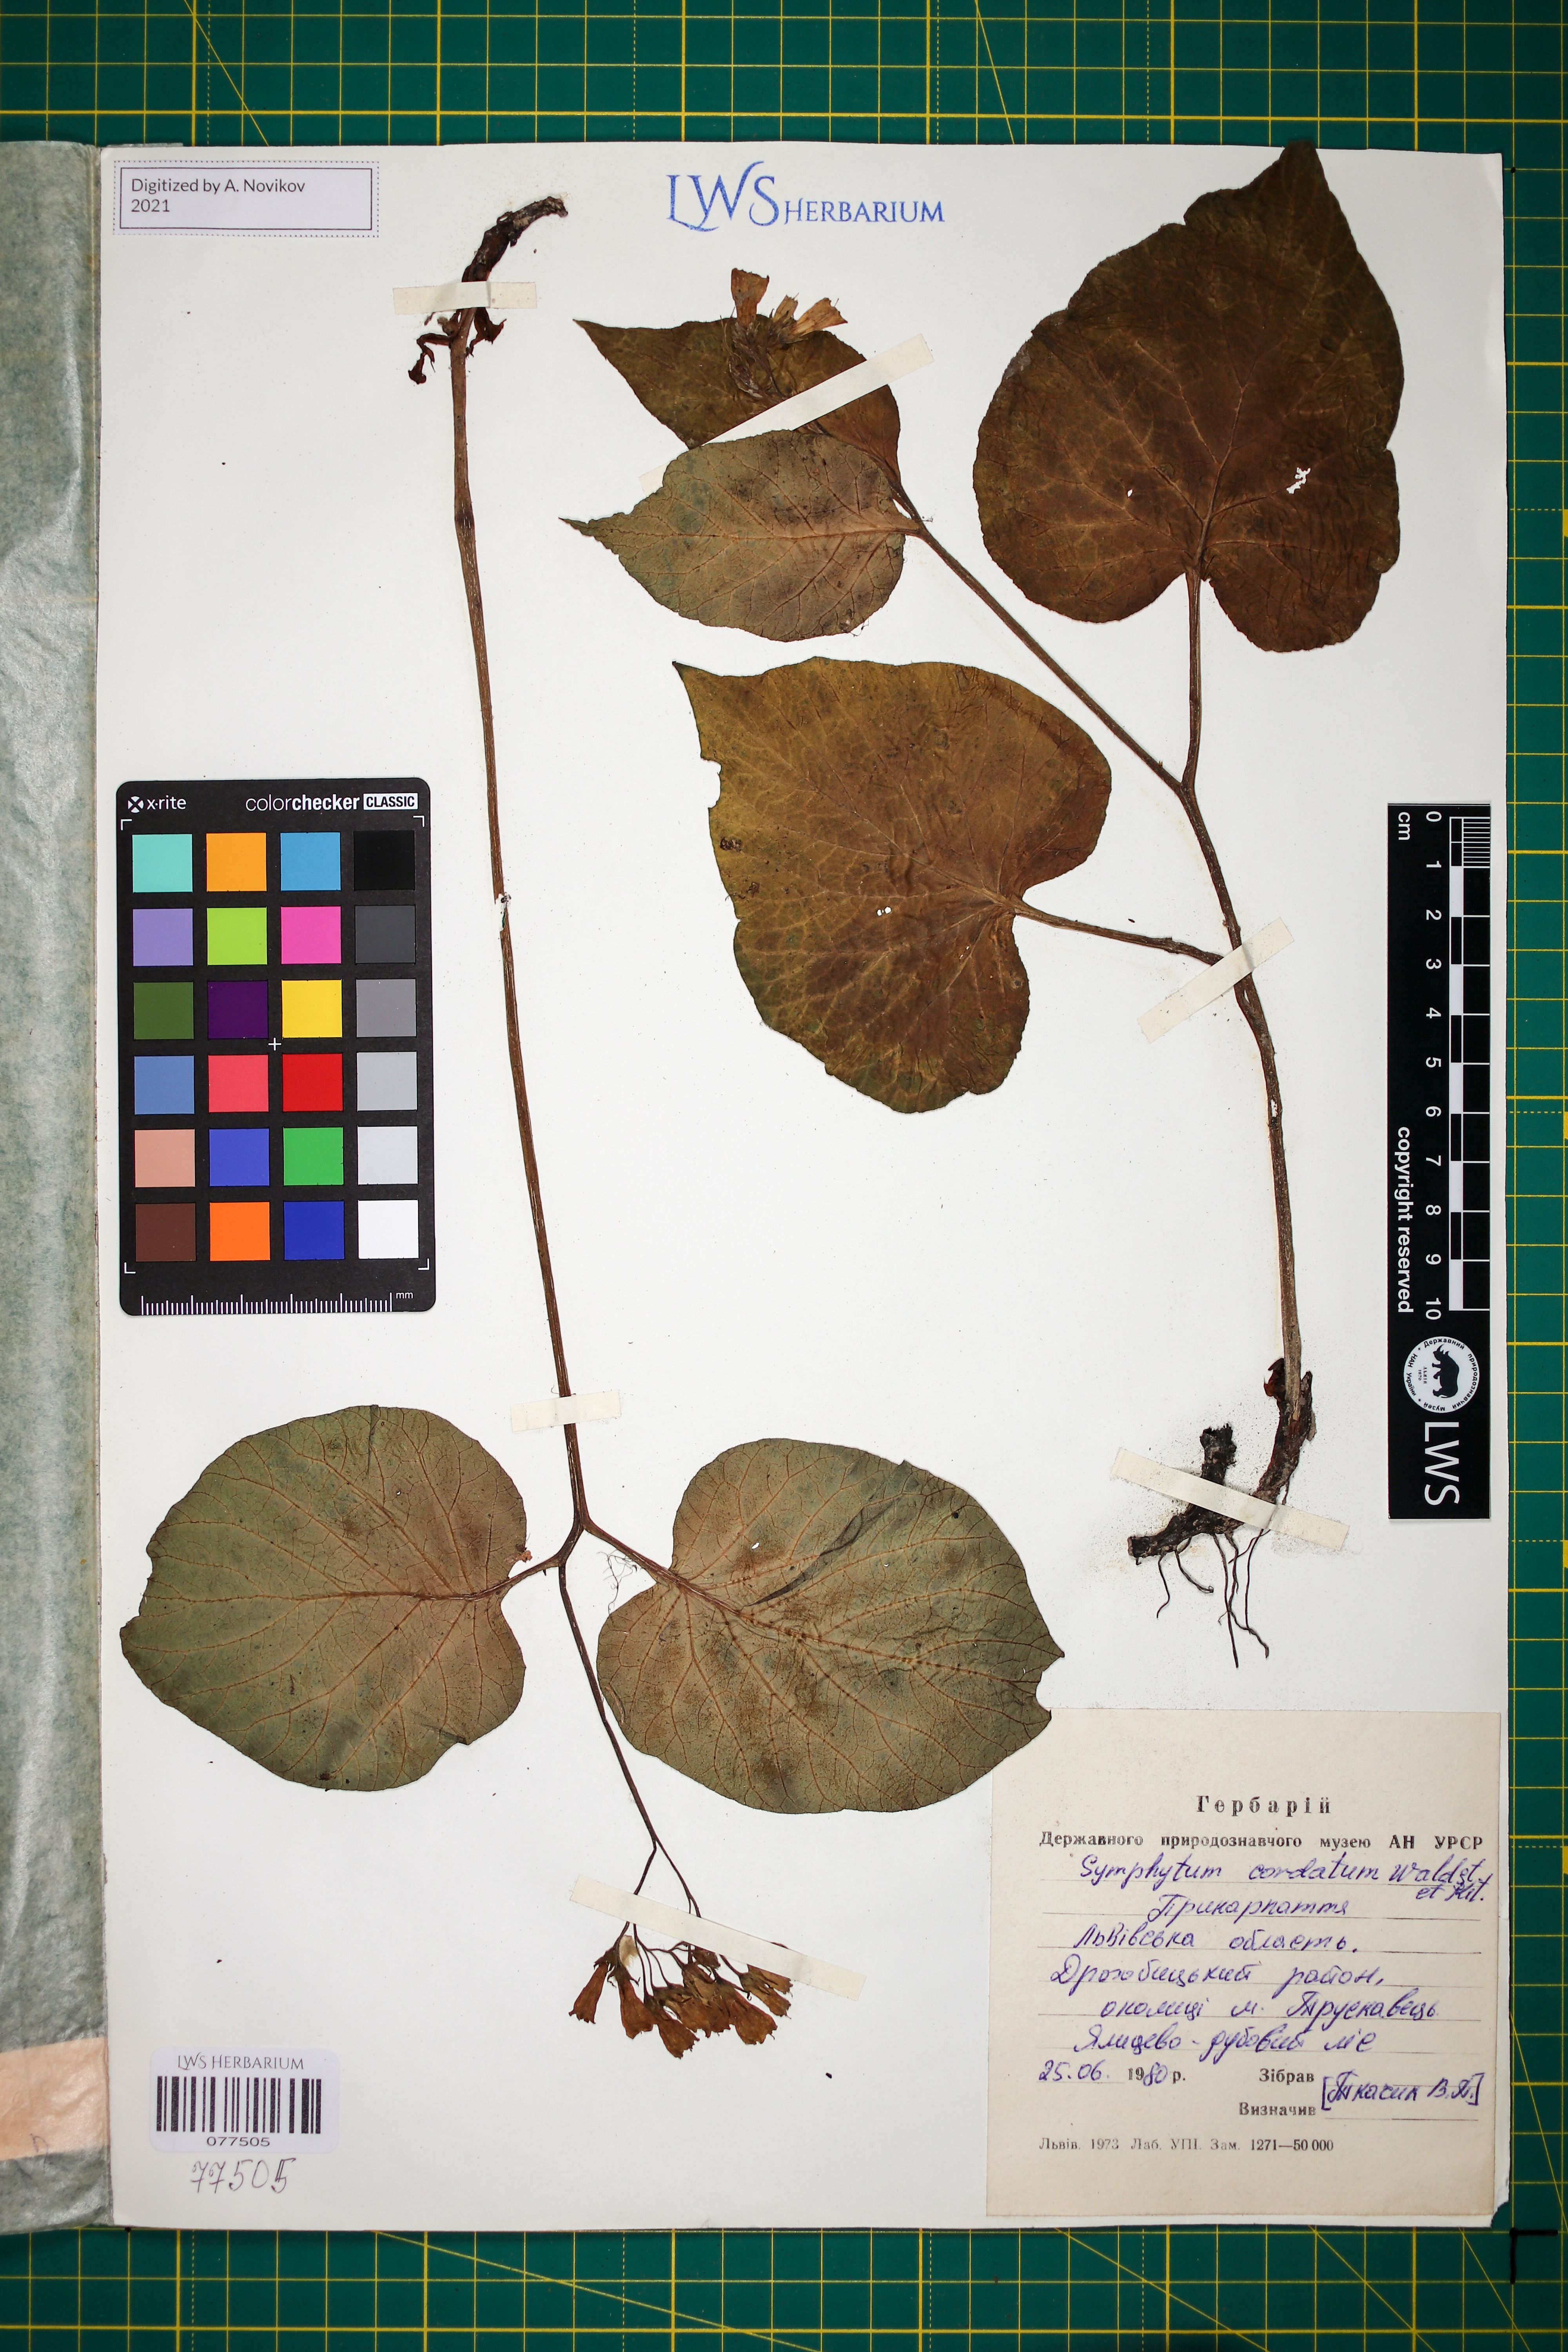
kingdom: Plantae
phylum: Tracheophyta
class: Magnoliopsida
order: Boraginales
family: Boraginaceae
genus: Symphytum
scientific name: Symphytum cordatum
